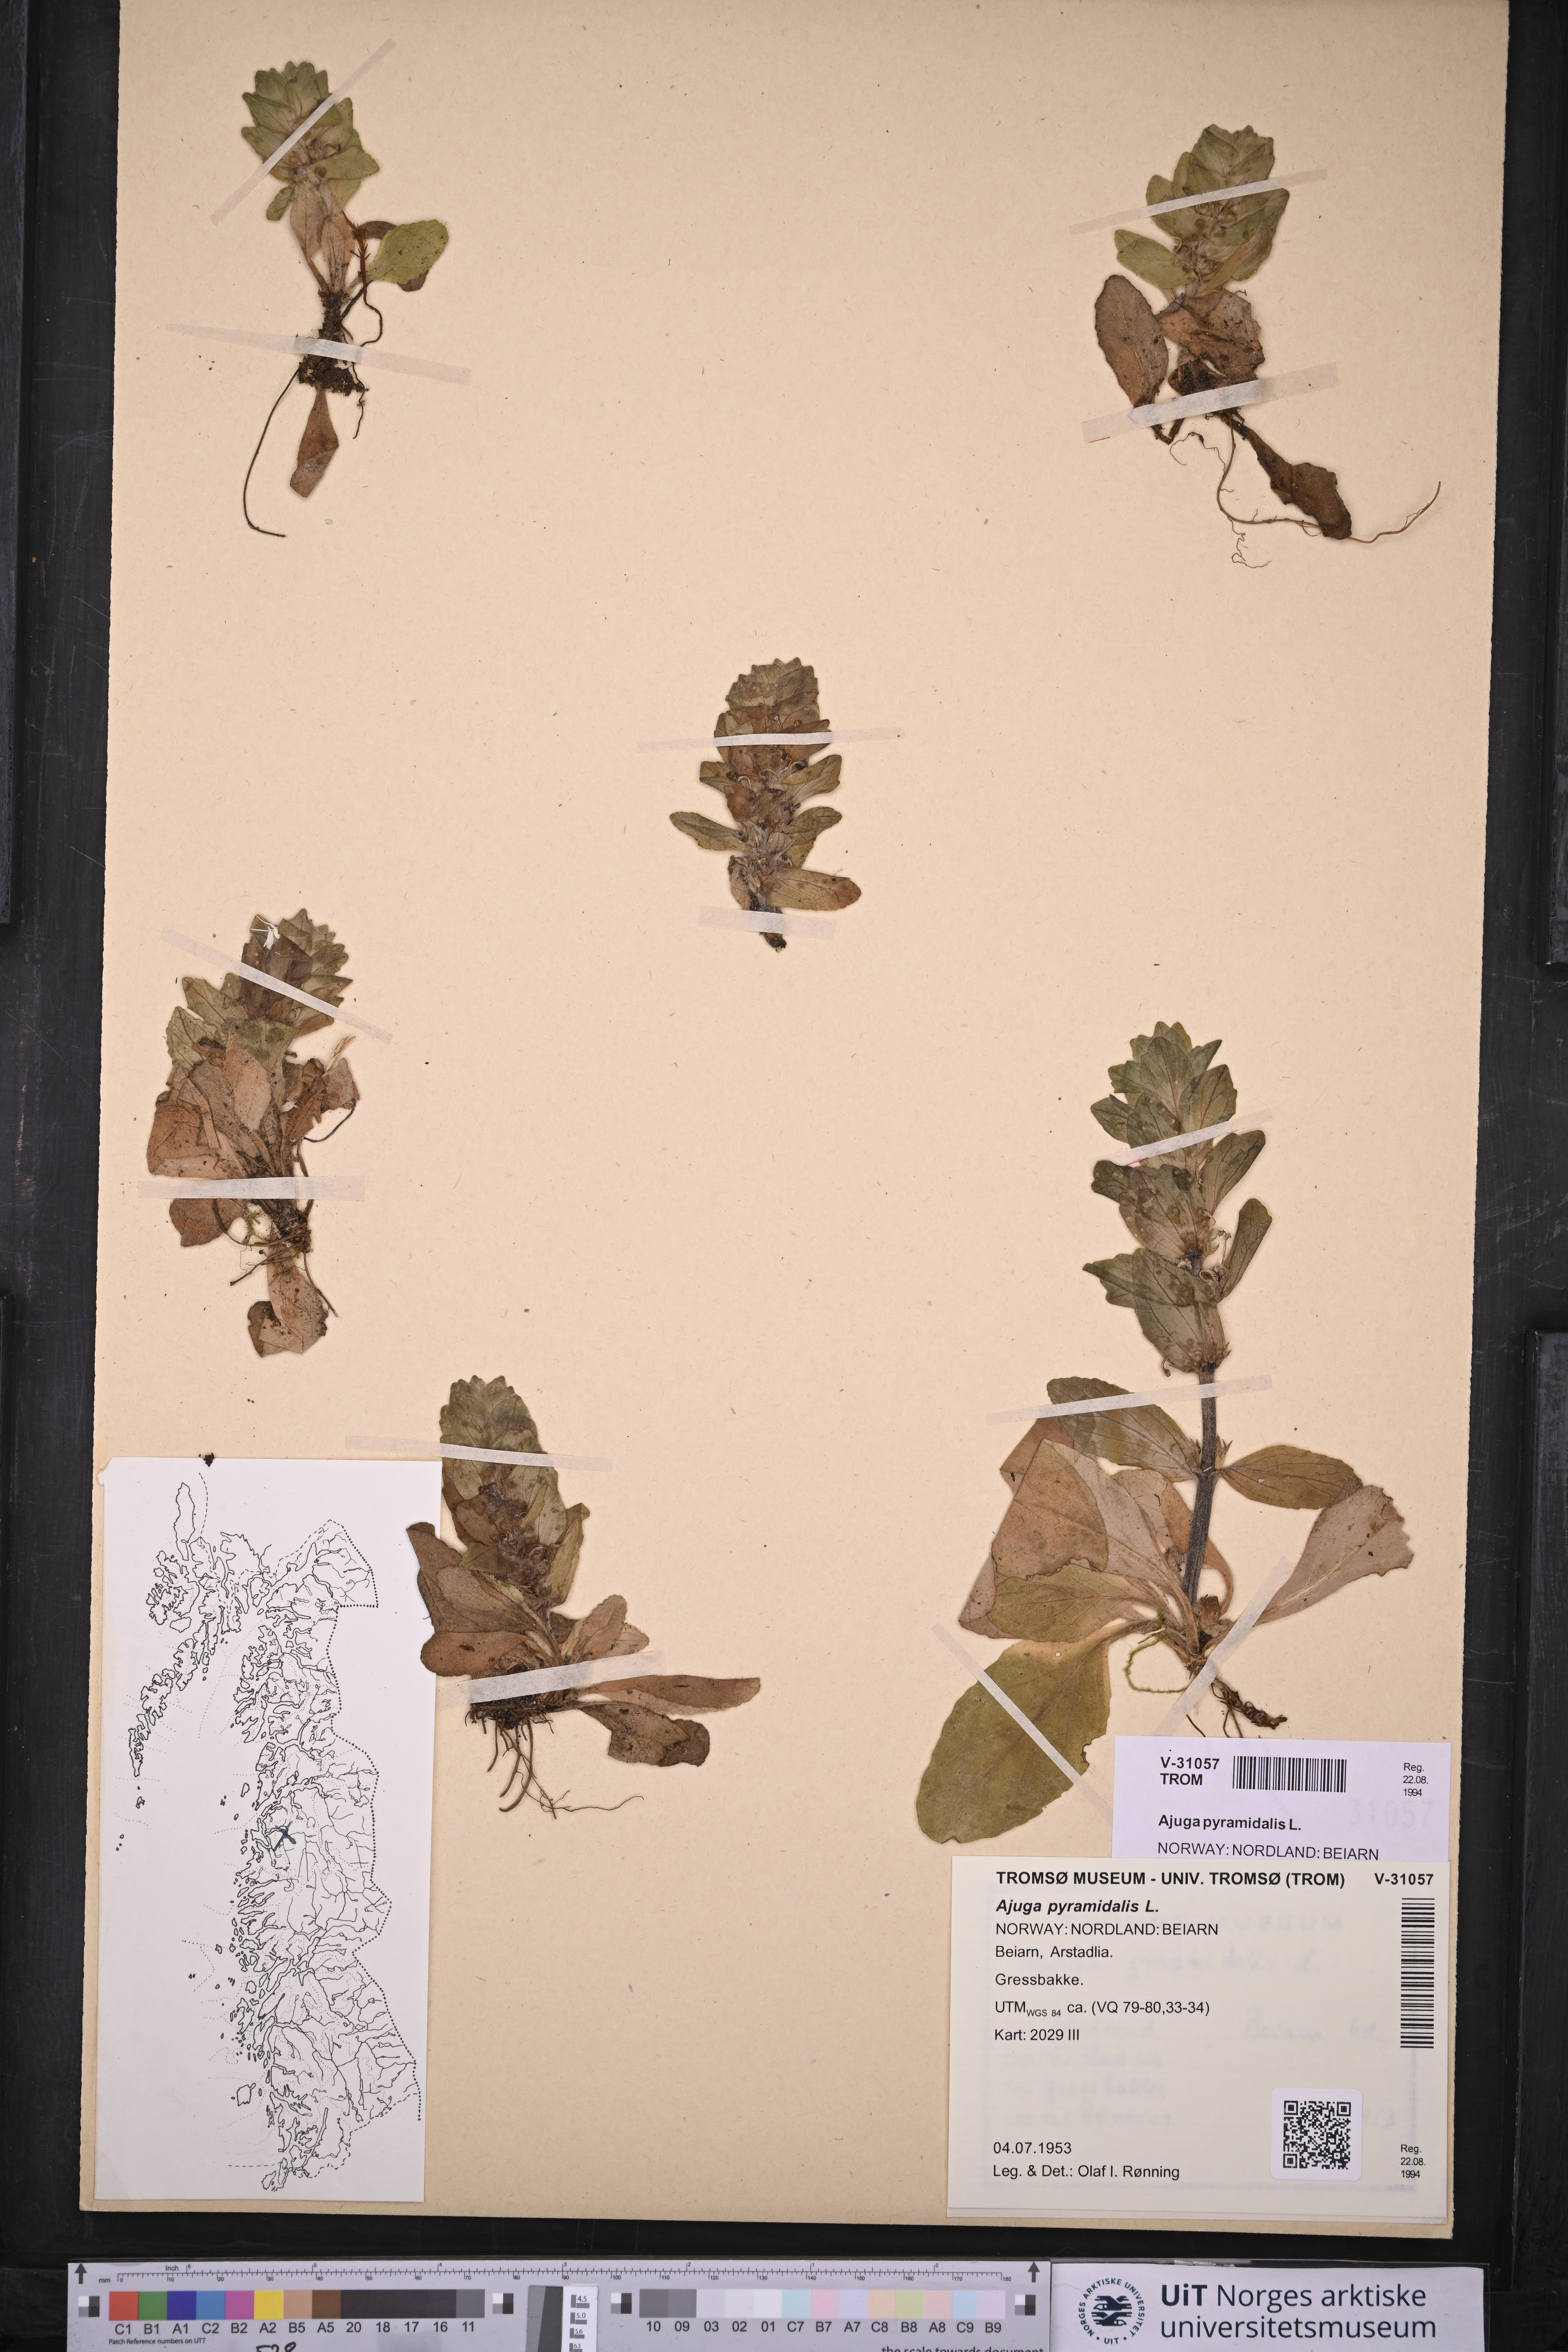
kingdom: Plantae
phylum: Tracheophyta
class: Magnoliopsida
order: Lamiales
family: Lamiaceae
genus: Ajuga
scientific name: Ajuga pyramidalis
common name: Pyramid bugle
